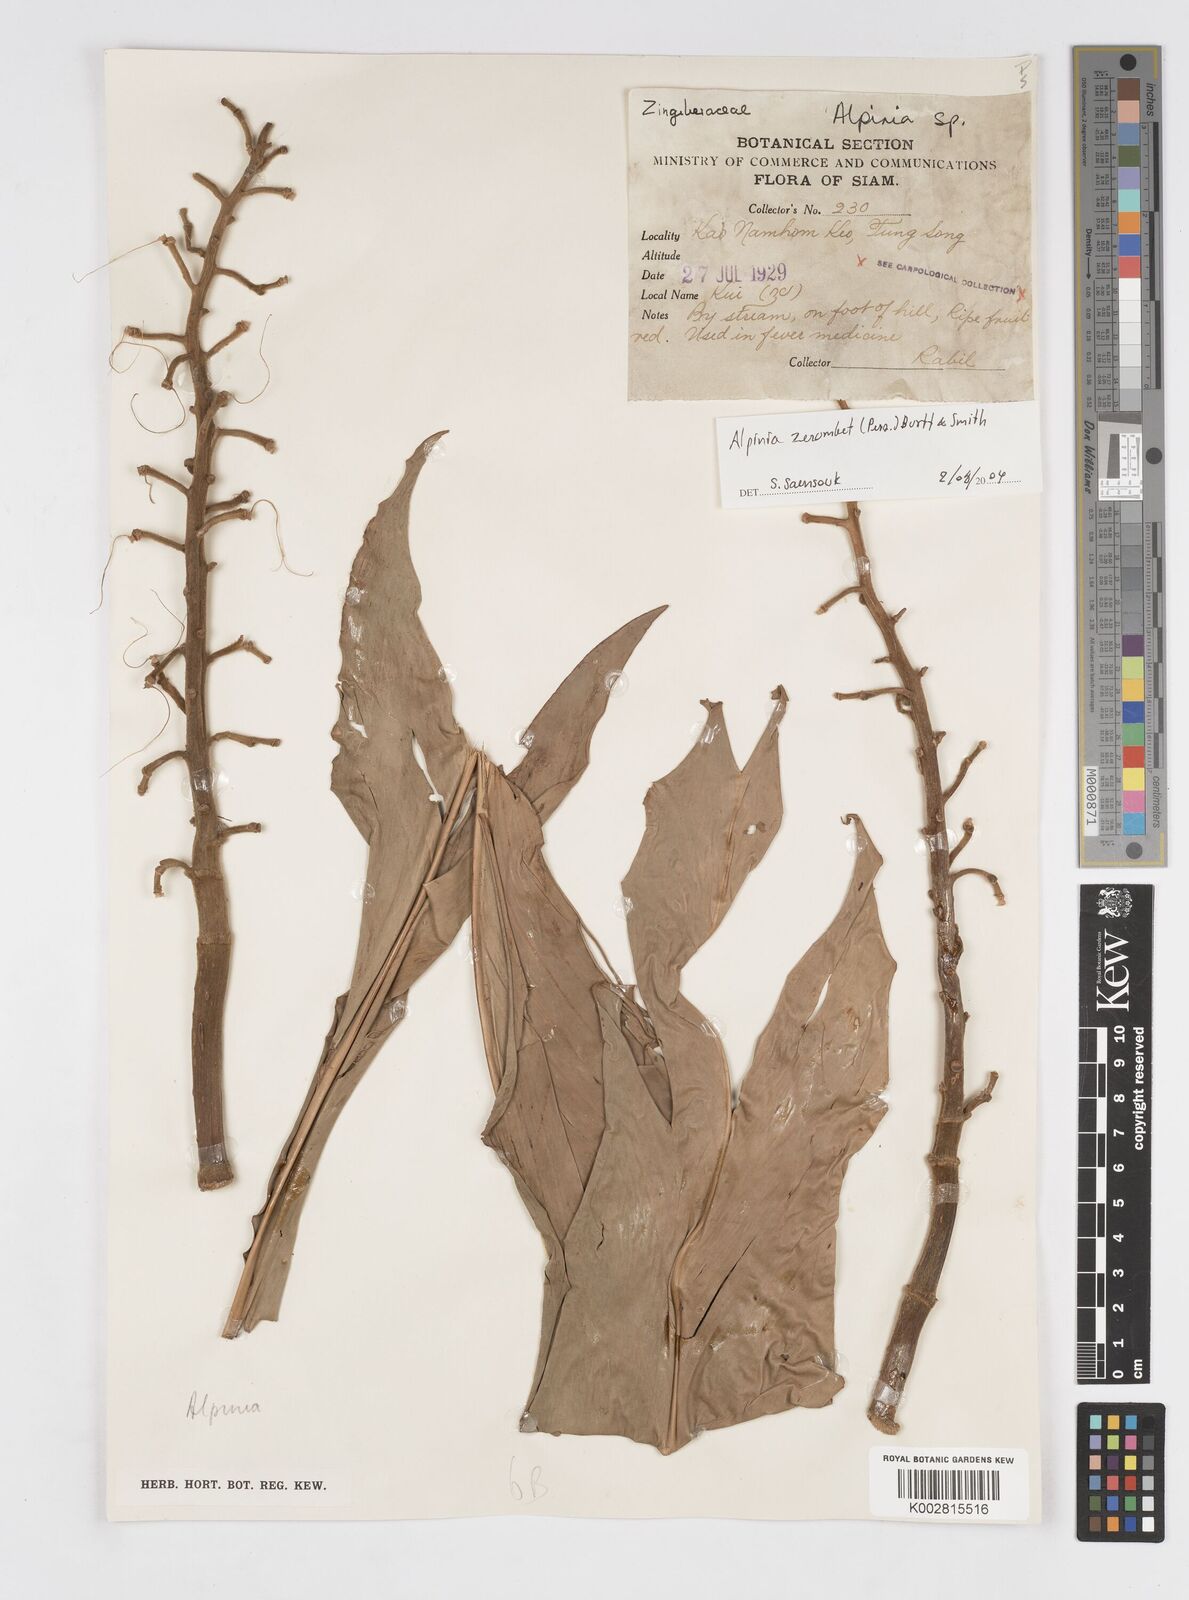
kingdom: Plantae
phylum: Tracheophyta
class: Liliopsida
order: Zingiberales
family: Zingiberaceae
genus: Alpinia
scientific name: Alpinia zerumbet
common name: Shellplant
